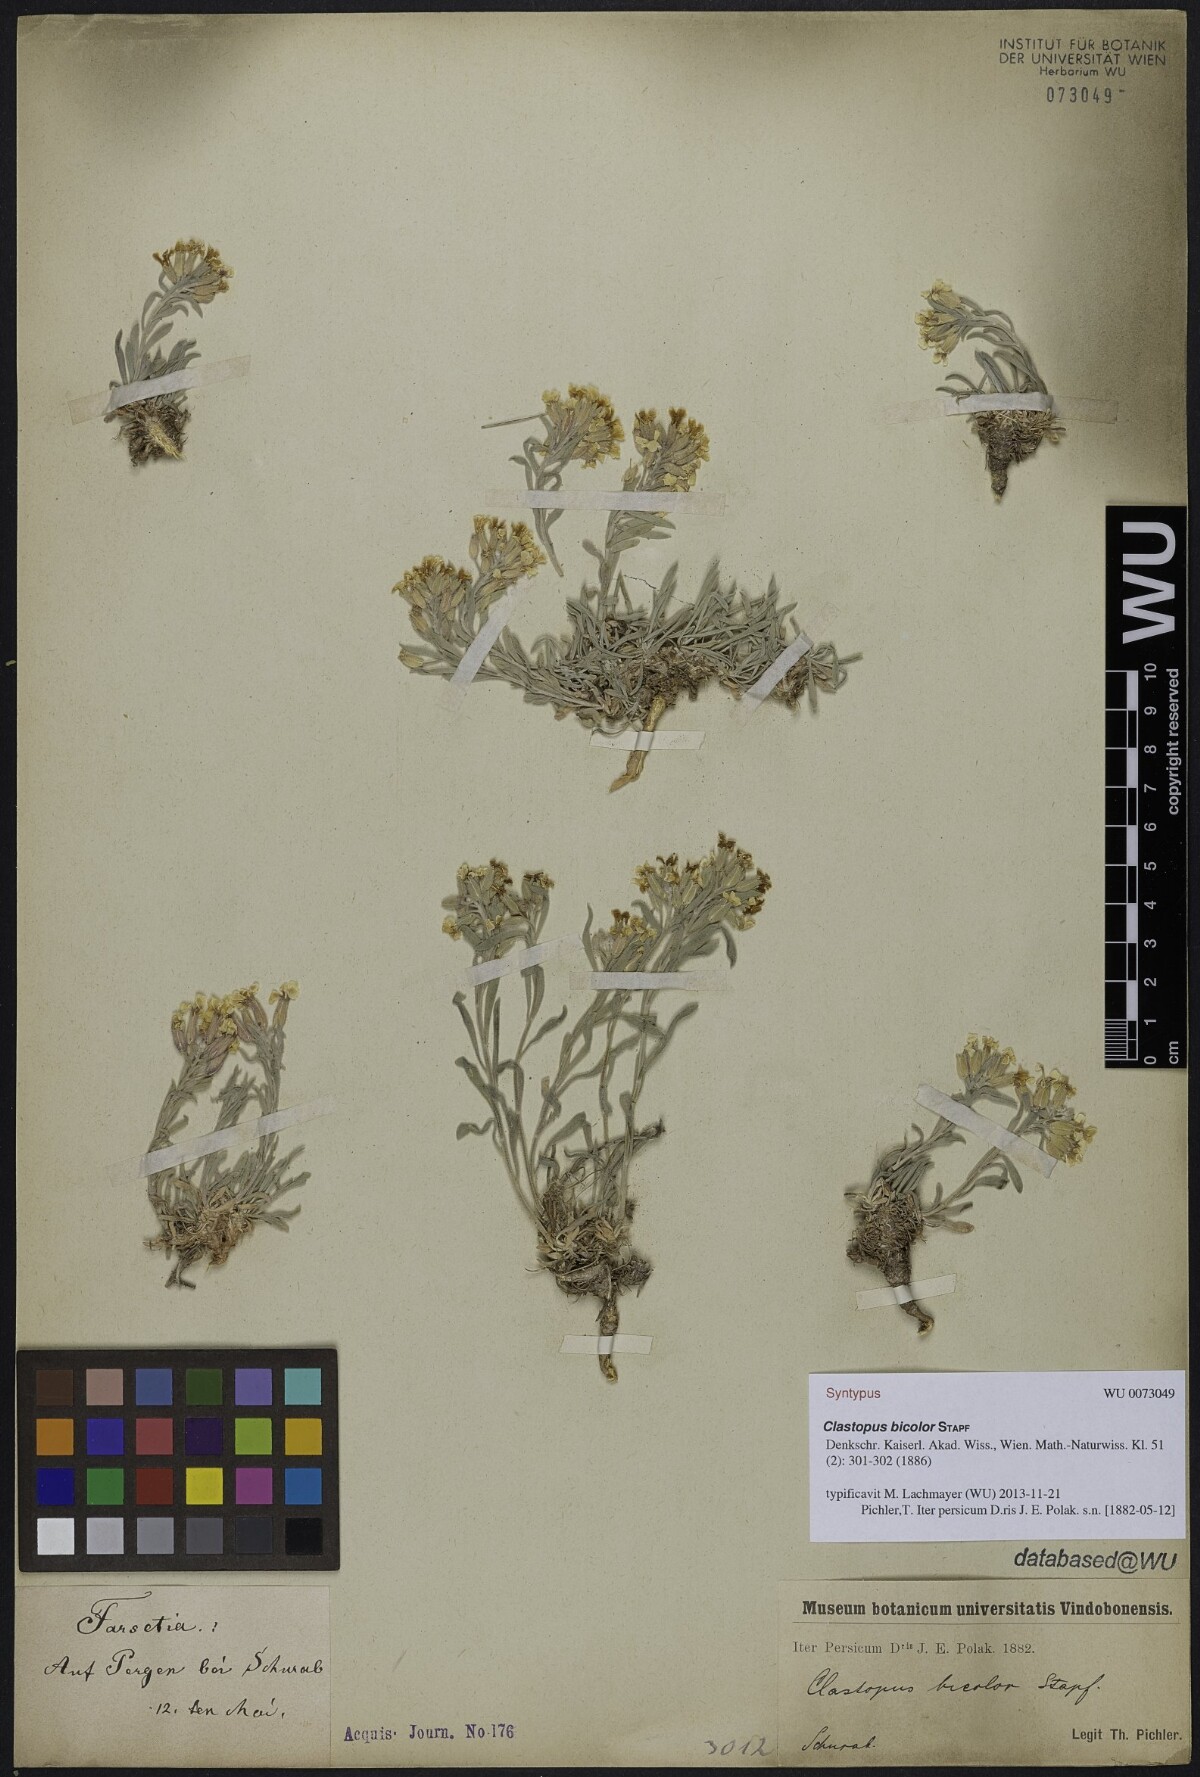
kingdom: Plantae
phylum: Tracheophyta
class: Magnoliopsida
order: Brassicales
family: Brassicaceae
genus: Clastopus
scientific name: Clastopus purpureus
